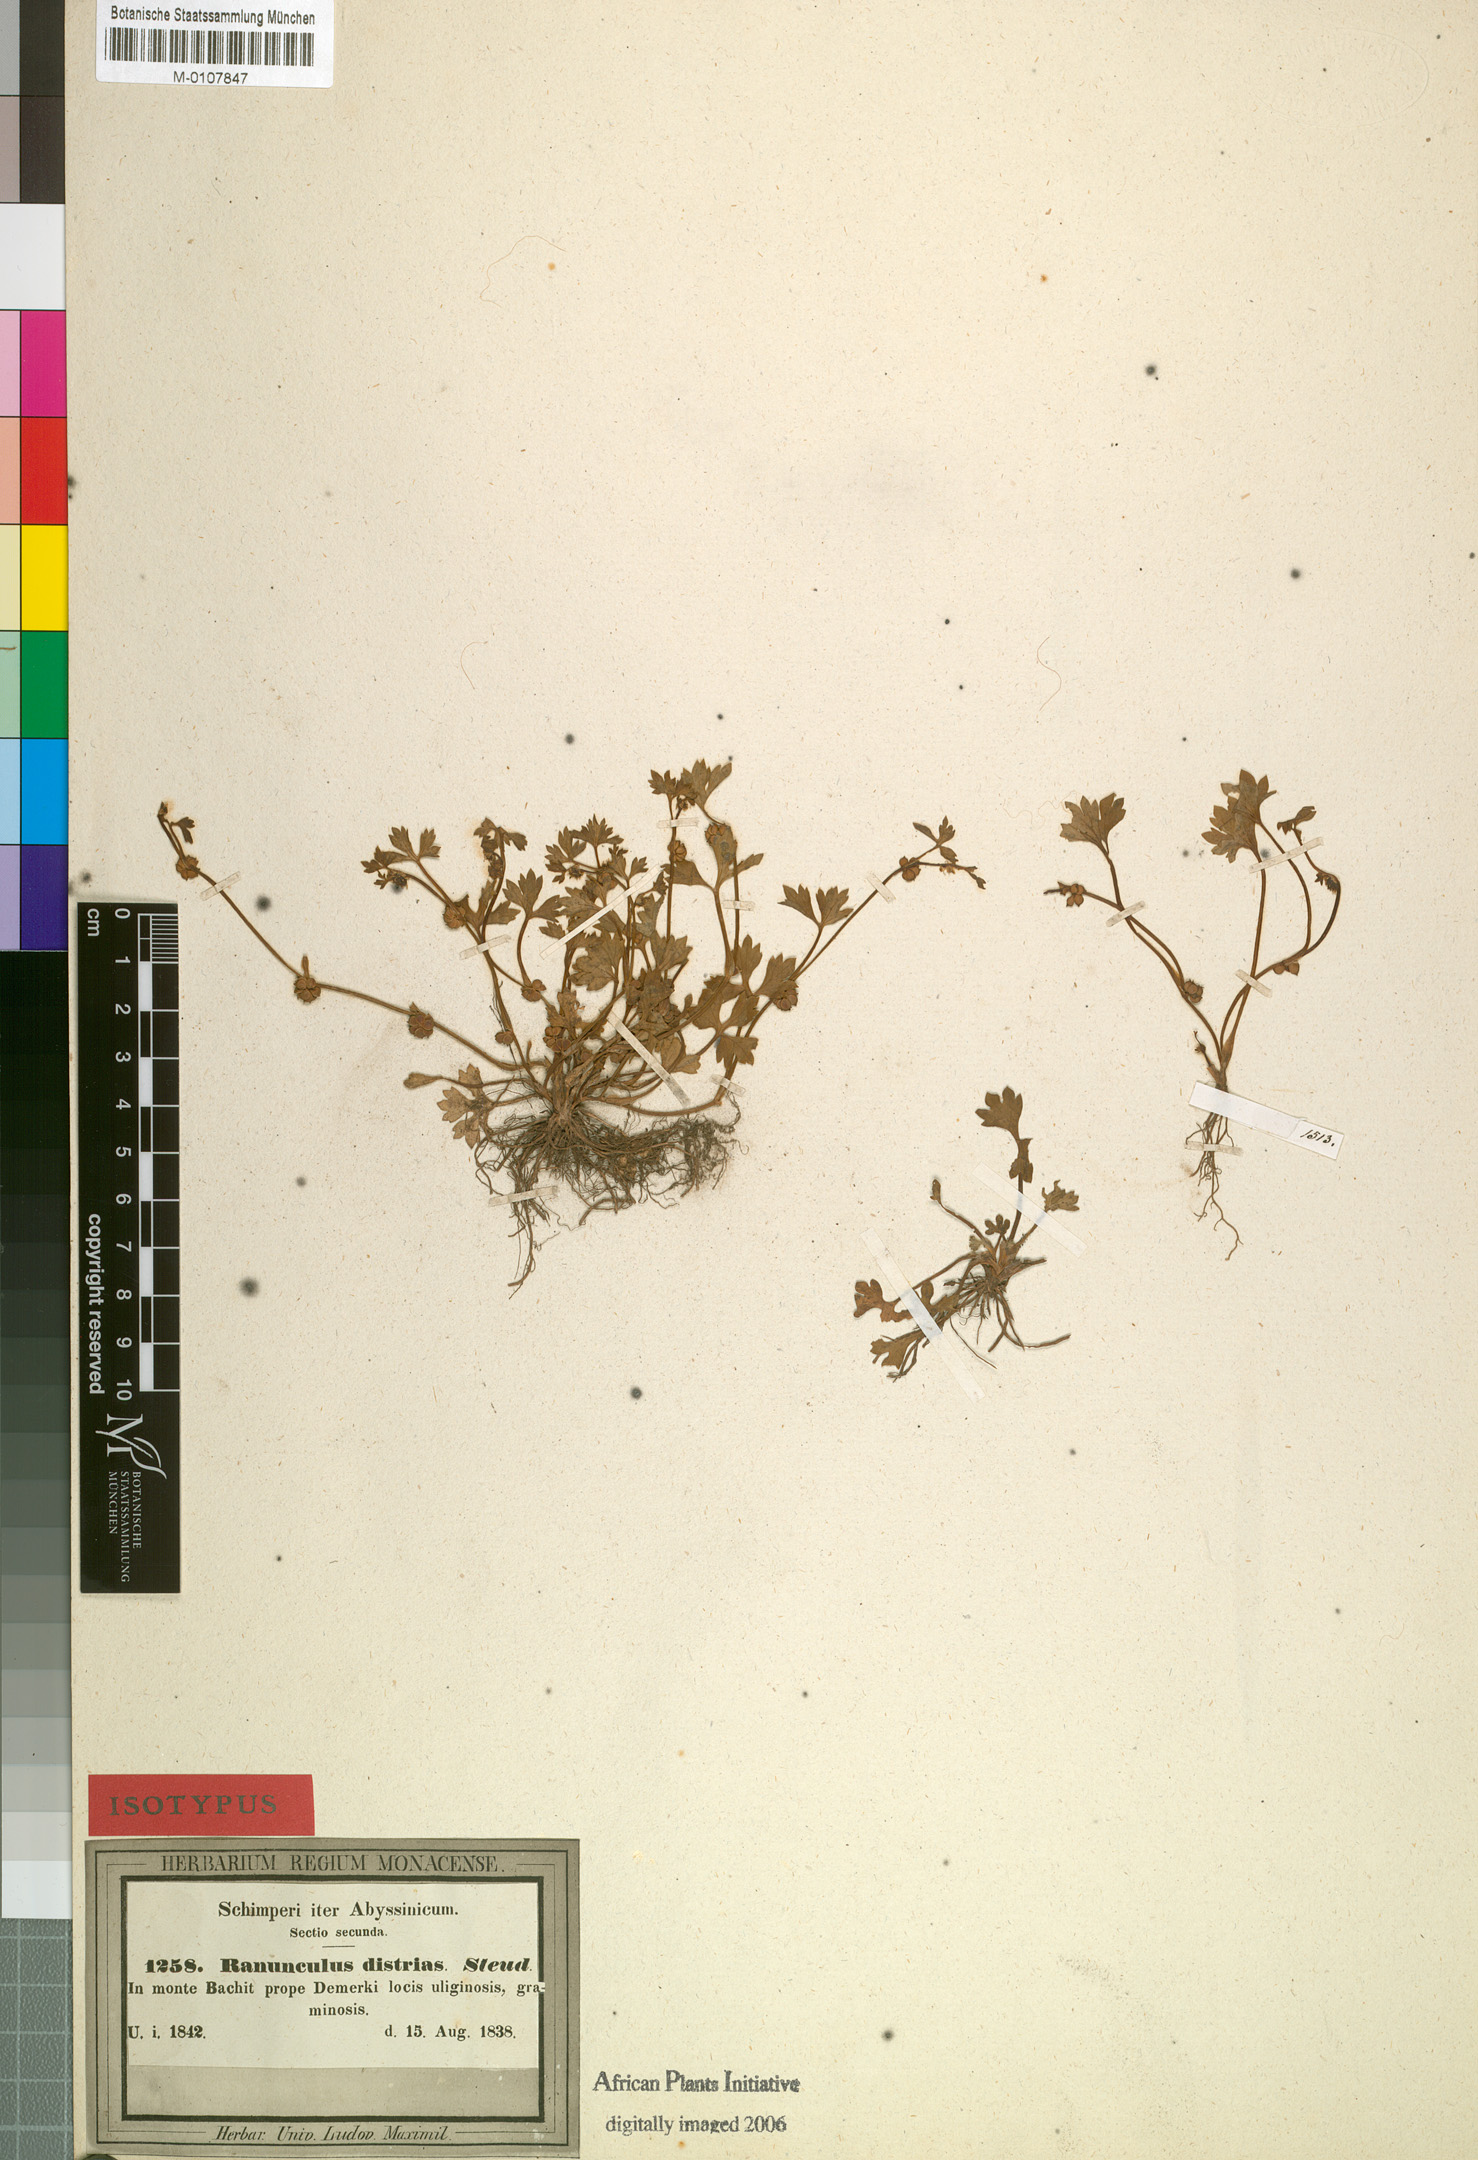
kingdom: Plantae
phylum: Tracheophyta
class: Magnoliopsida
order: Ranunculales
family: Ranunculaceae
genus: Ranunculus
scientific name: Ranunculus cuneilobus
